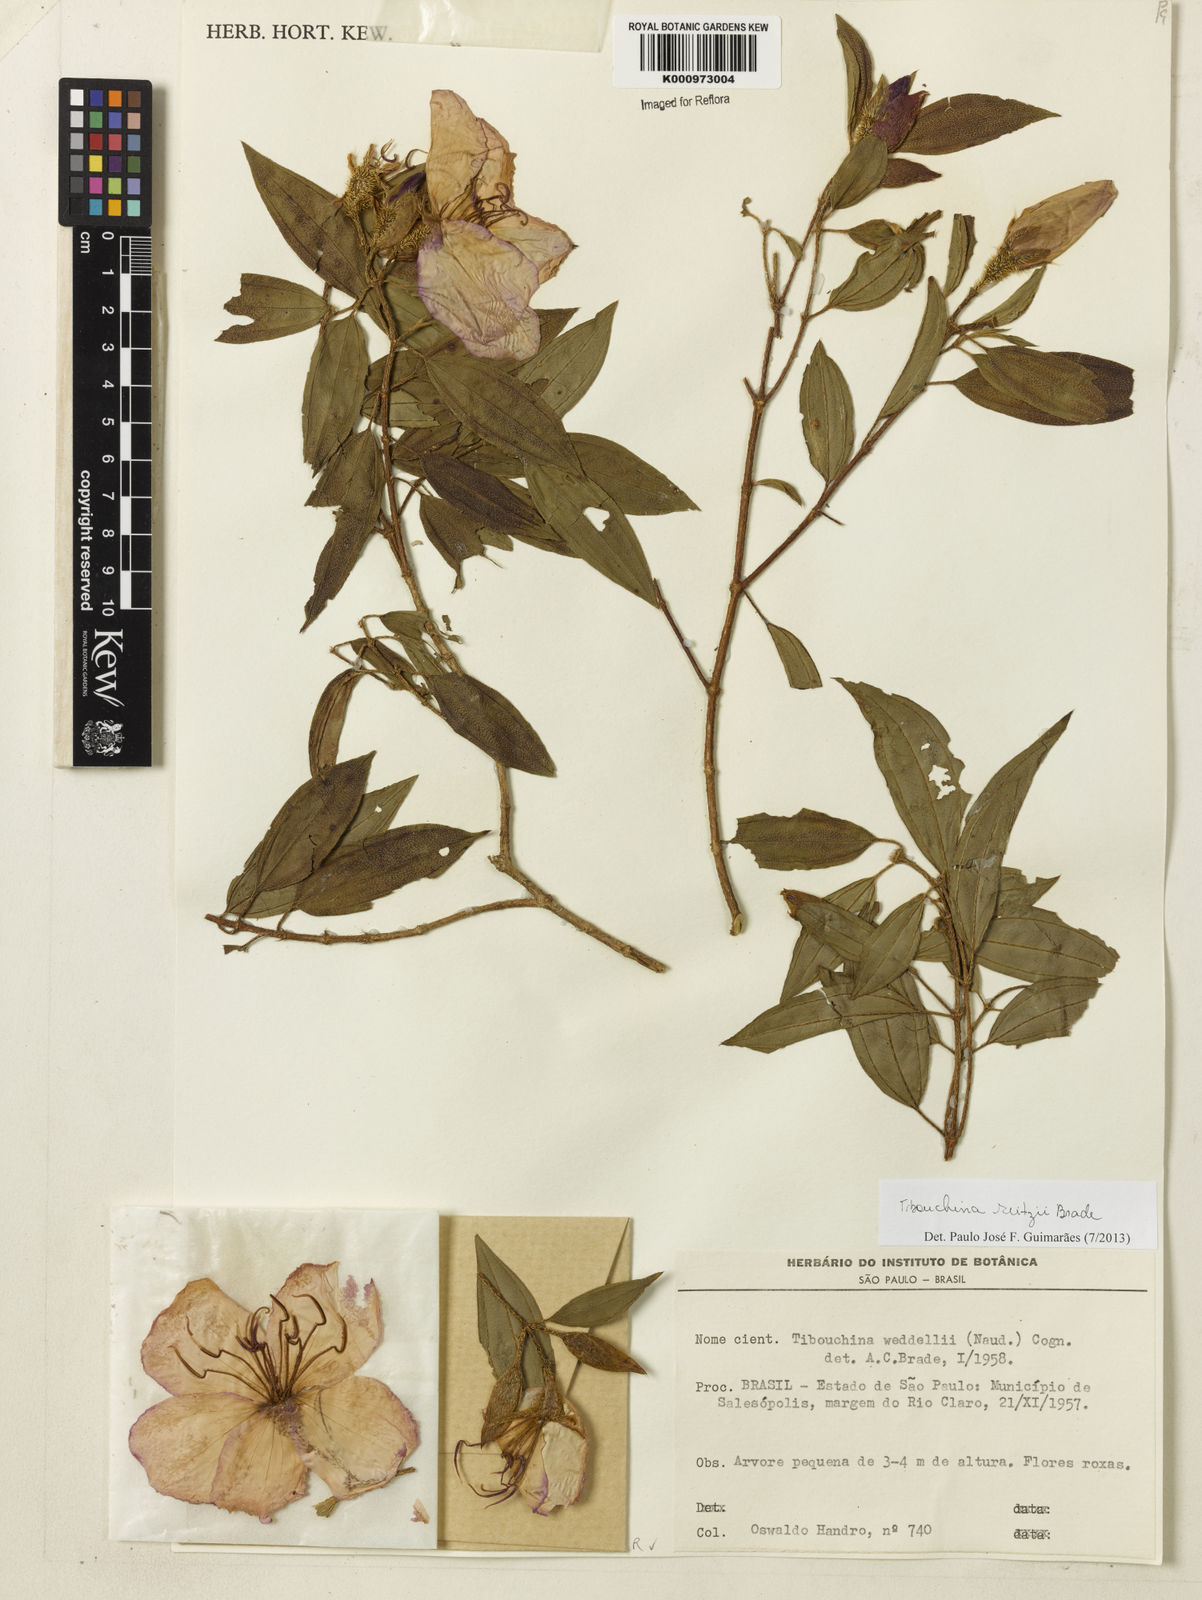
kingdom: Plantae
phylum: Tracheophyta
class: Magnoliopsida
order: Myrtales
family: Melastomataceae
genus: Pleroma
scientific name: Pleroma reitzii
